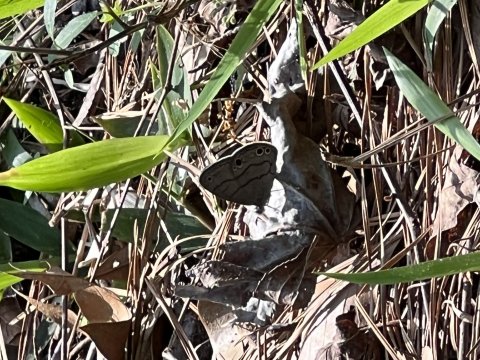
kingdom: Animalia
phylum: Arthropoda
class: Insecta
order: Lepidoptera
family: Nymphalidae
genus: Hermeuptychia
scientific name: Hermeuptychia hermes
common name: Carolina Satyr
